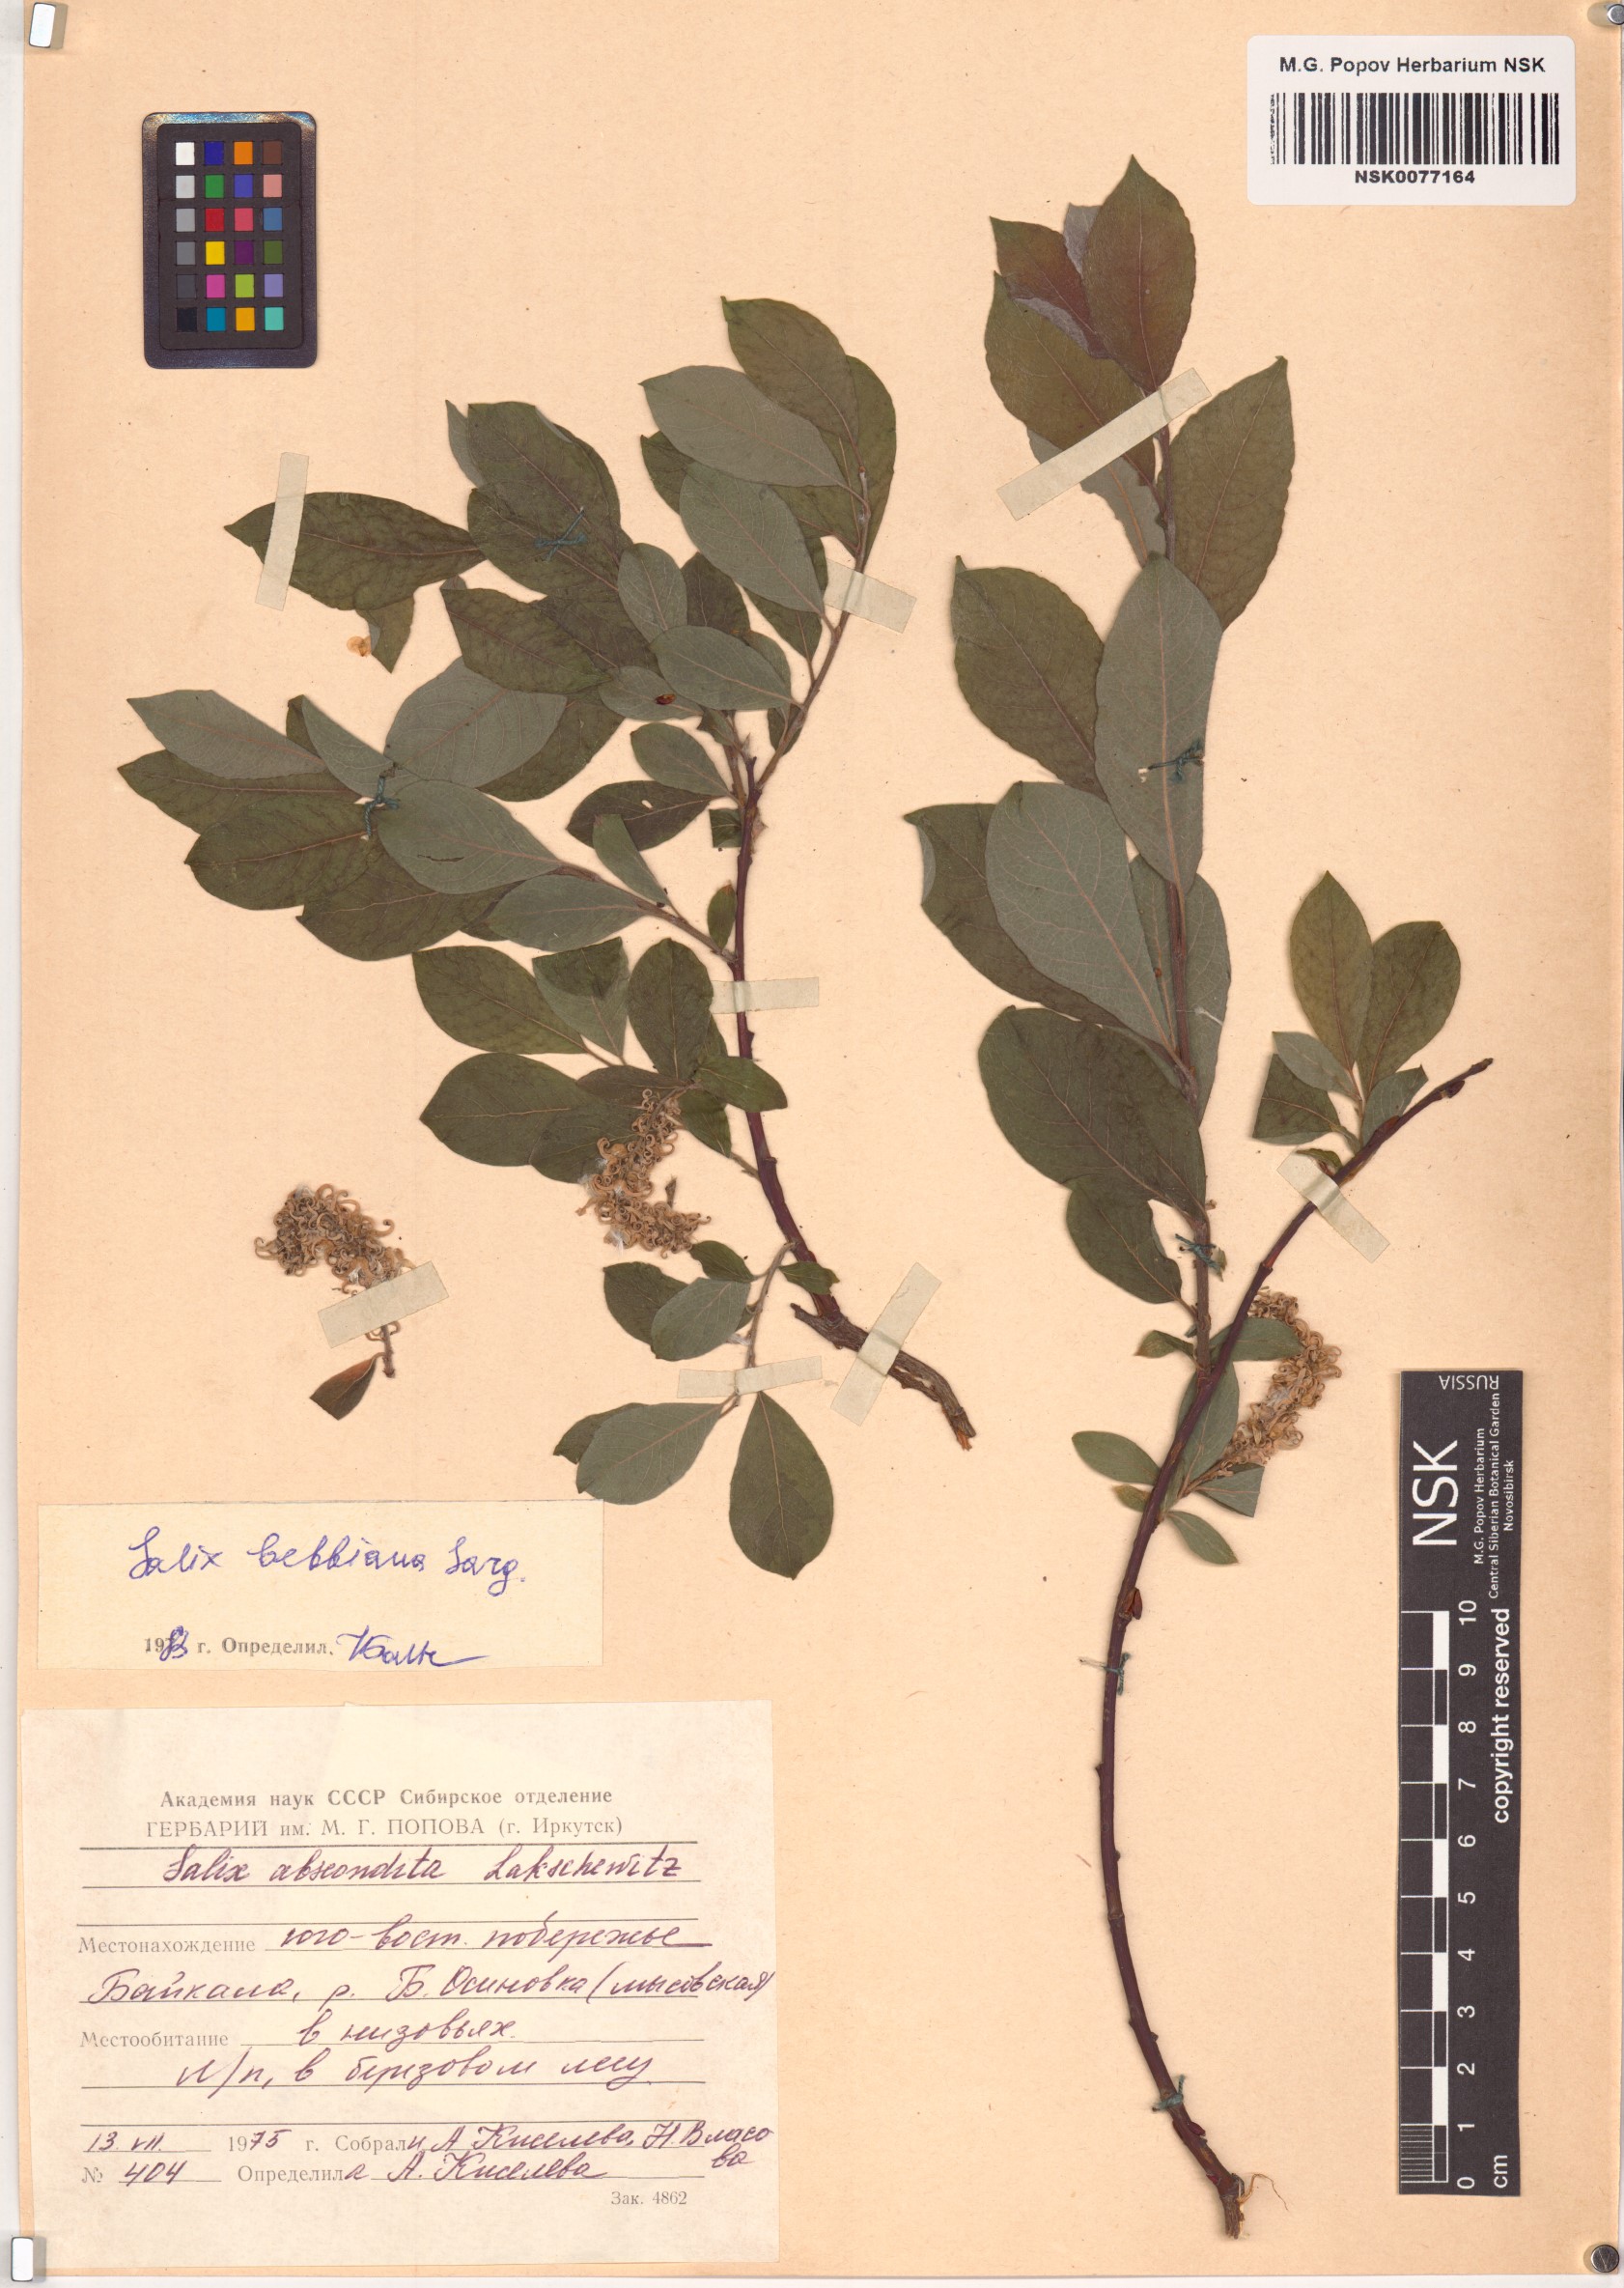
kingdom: Plantae
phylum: Tracheophyta
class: Magnoliopsida
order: Malpighiales
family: Salicaceae
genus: Salix
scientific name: Salix bebbiana
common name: Bebb's willow
